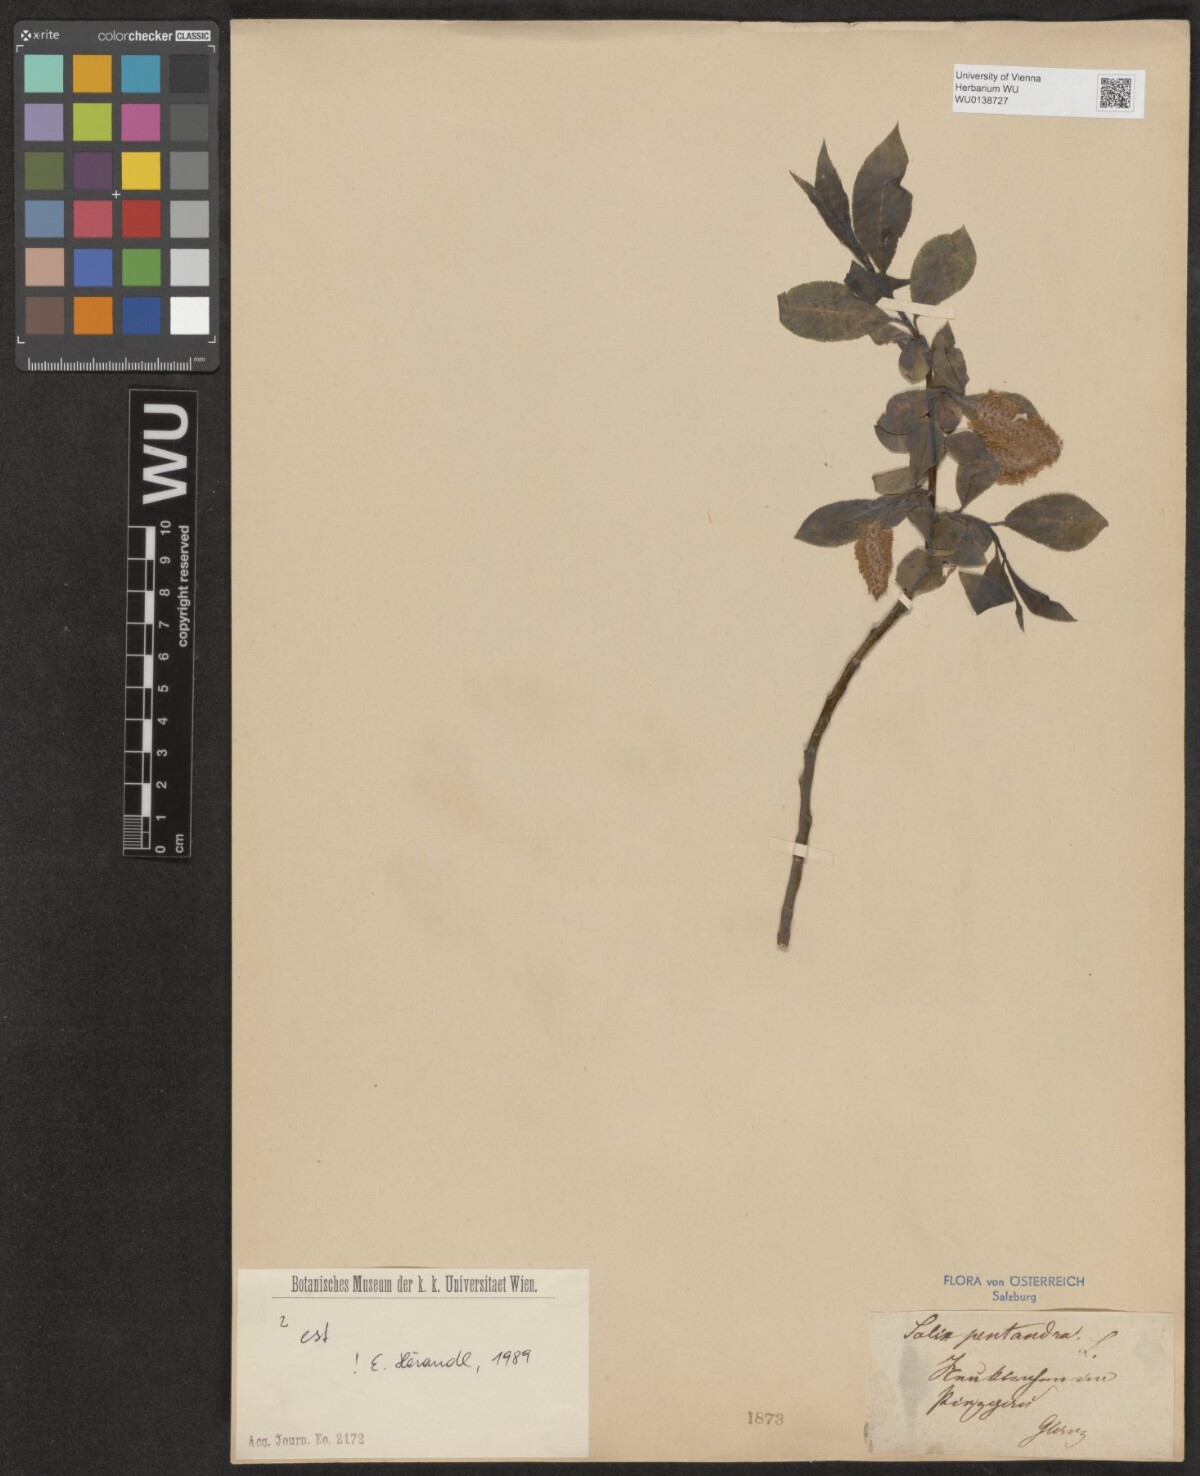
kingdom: Plantae
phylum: Tracheophyta
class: Magnoliopsida
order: Malpighiales
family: Salicaceae
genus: Salix
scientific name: Salix pentandra
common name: Bay willow
